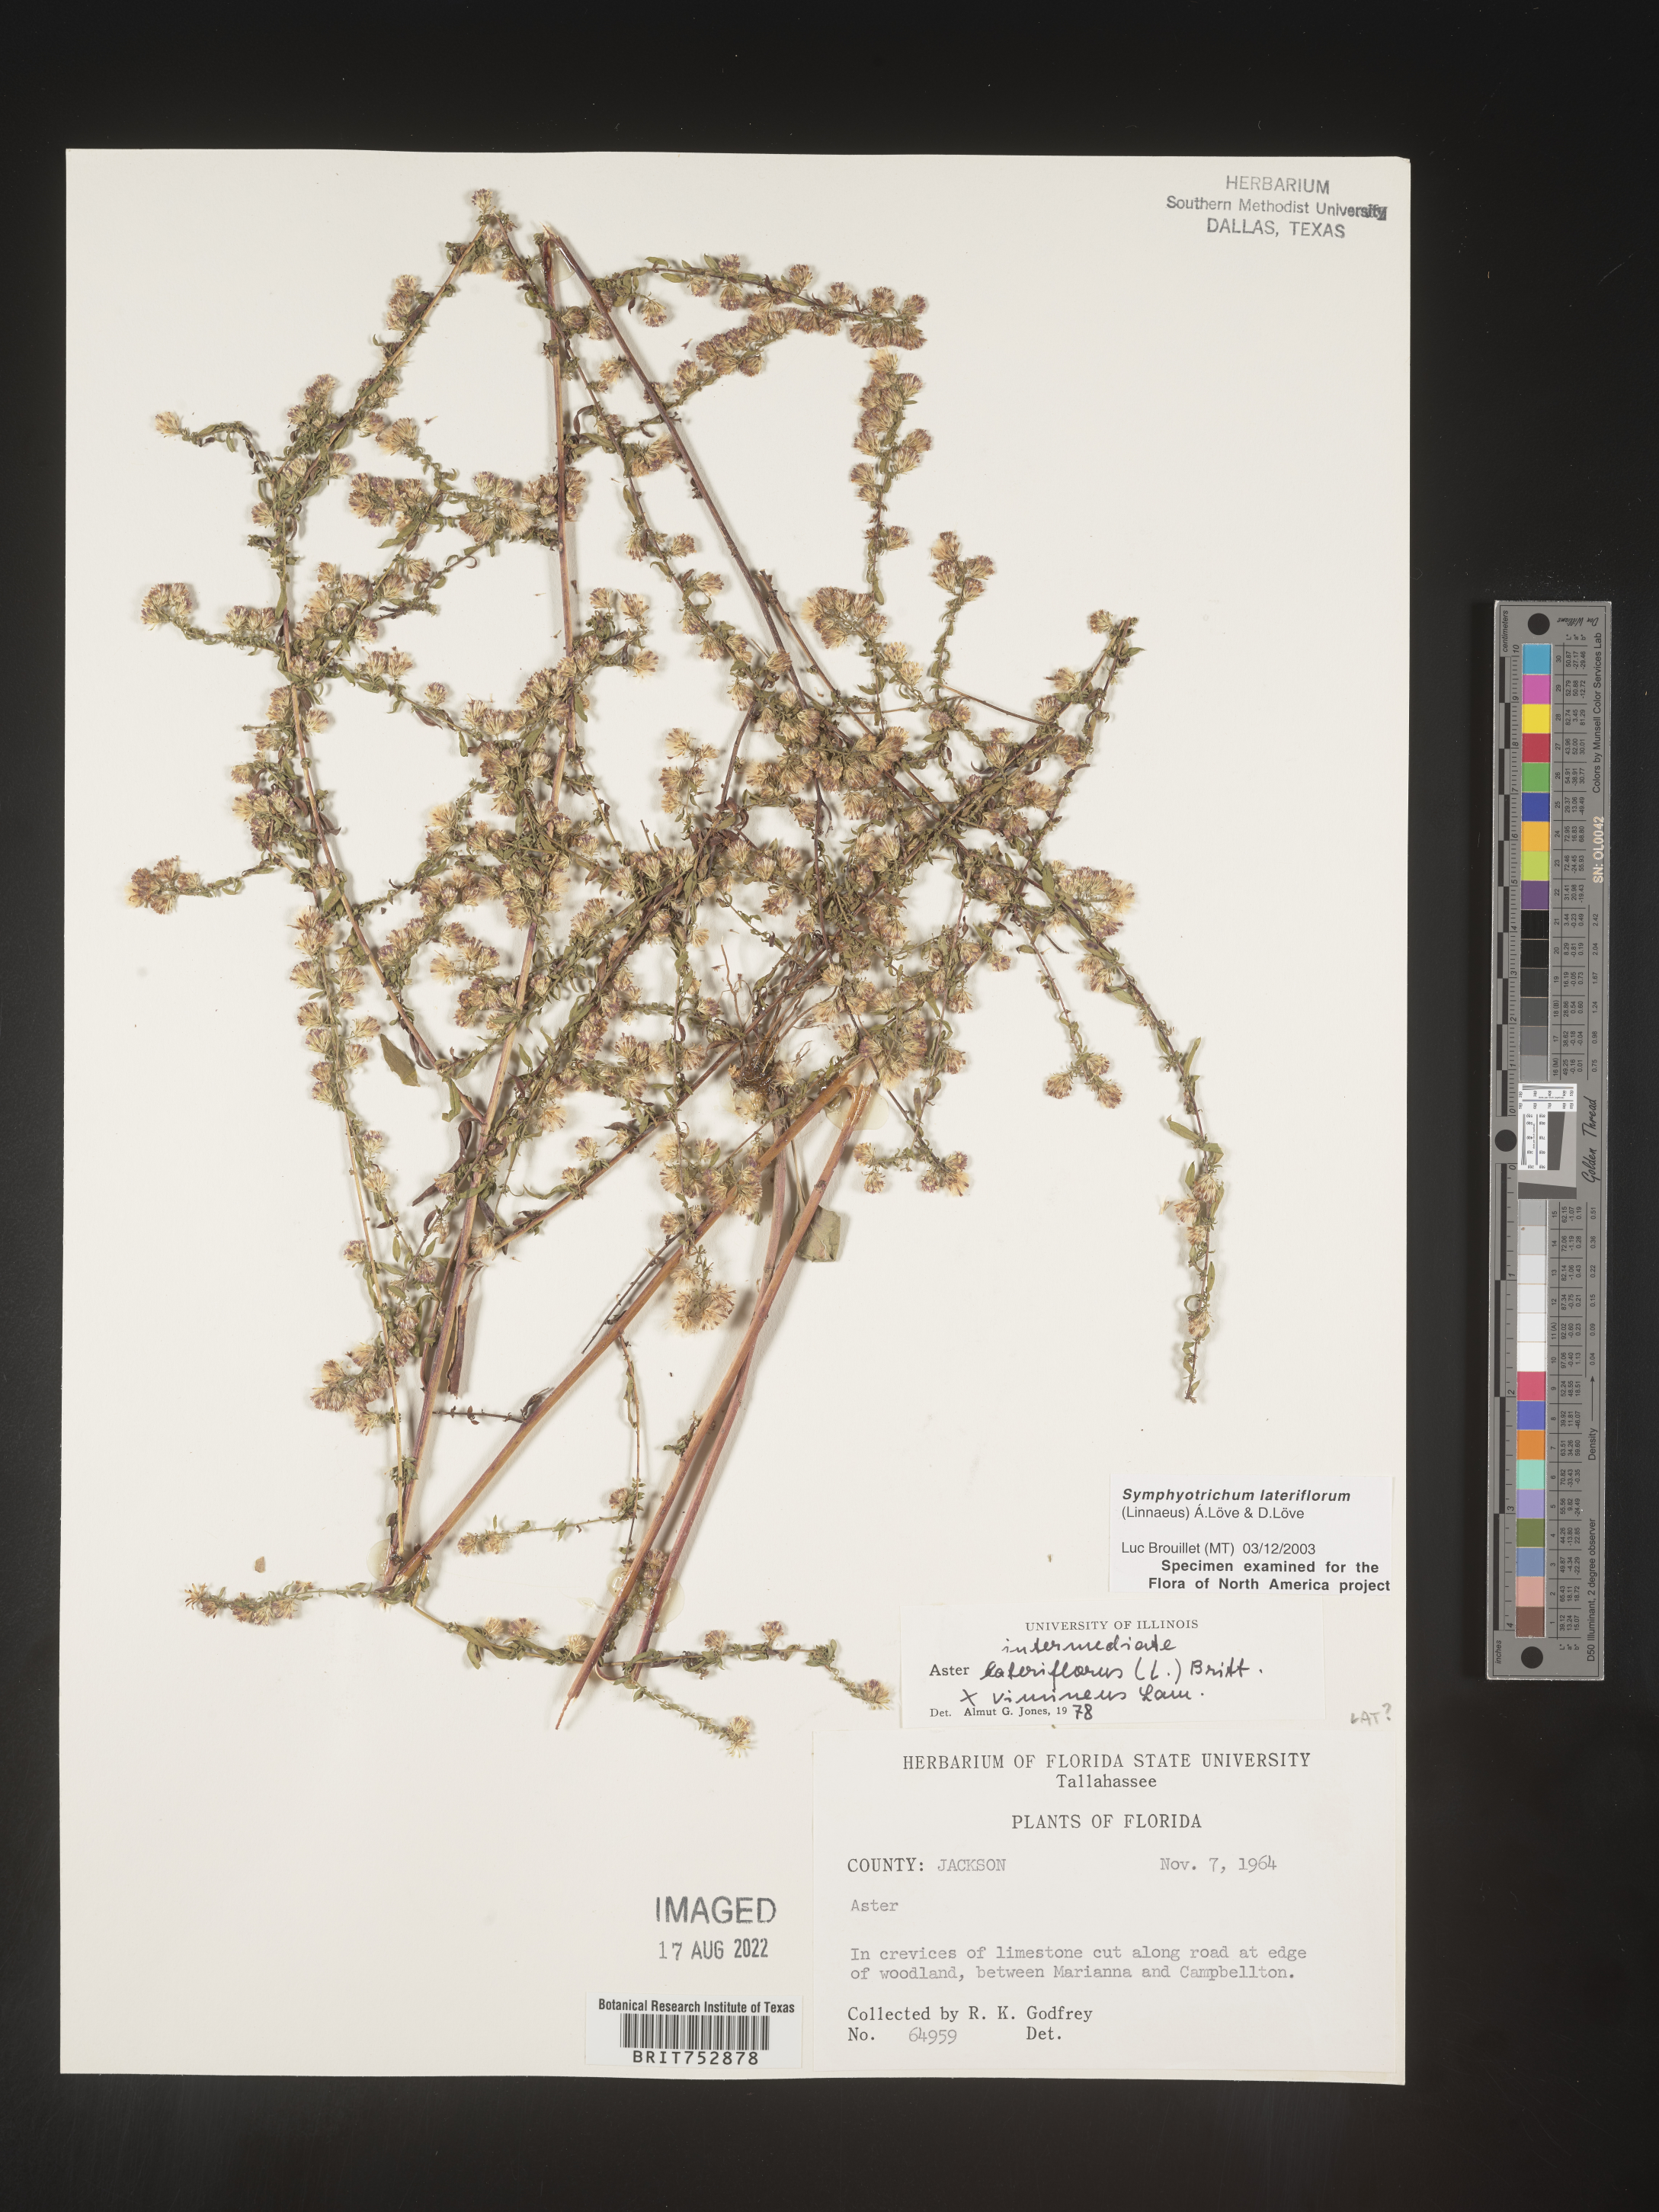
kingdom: Plantae
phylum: Tracheophyta
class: Magnoliopsida
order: Asterales
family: Asteraceae
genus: Symphyotrichum
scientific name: Symphyotrichum lateriflorum
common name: Calico aster
